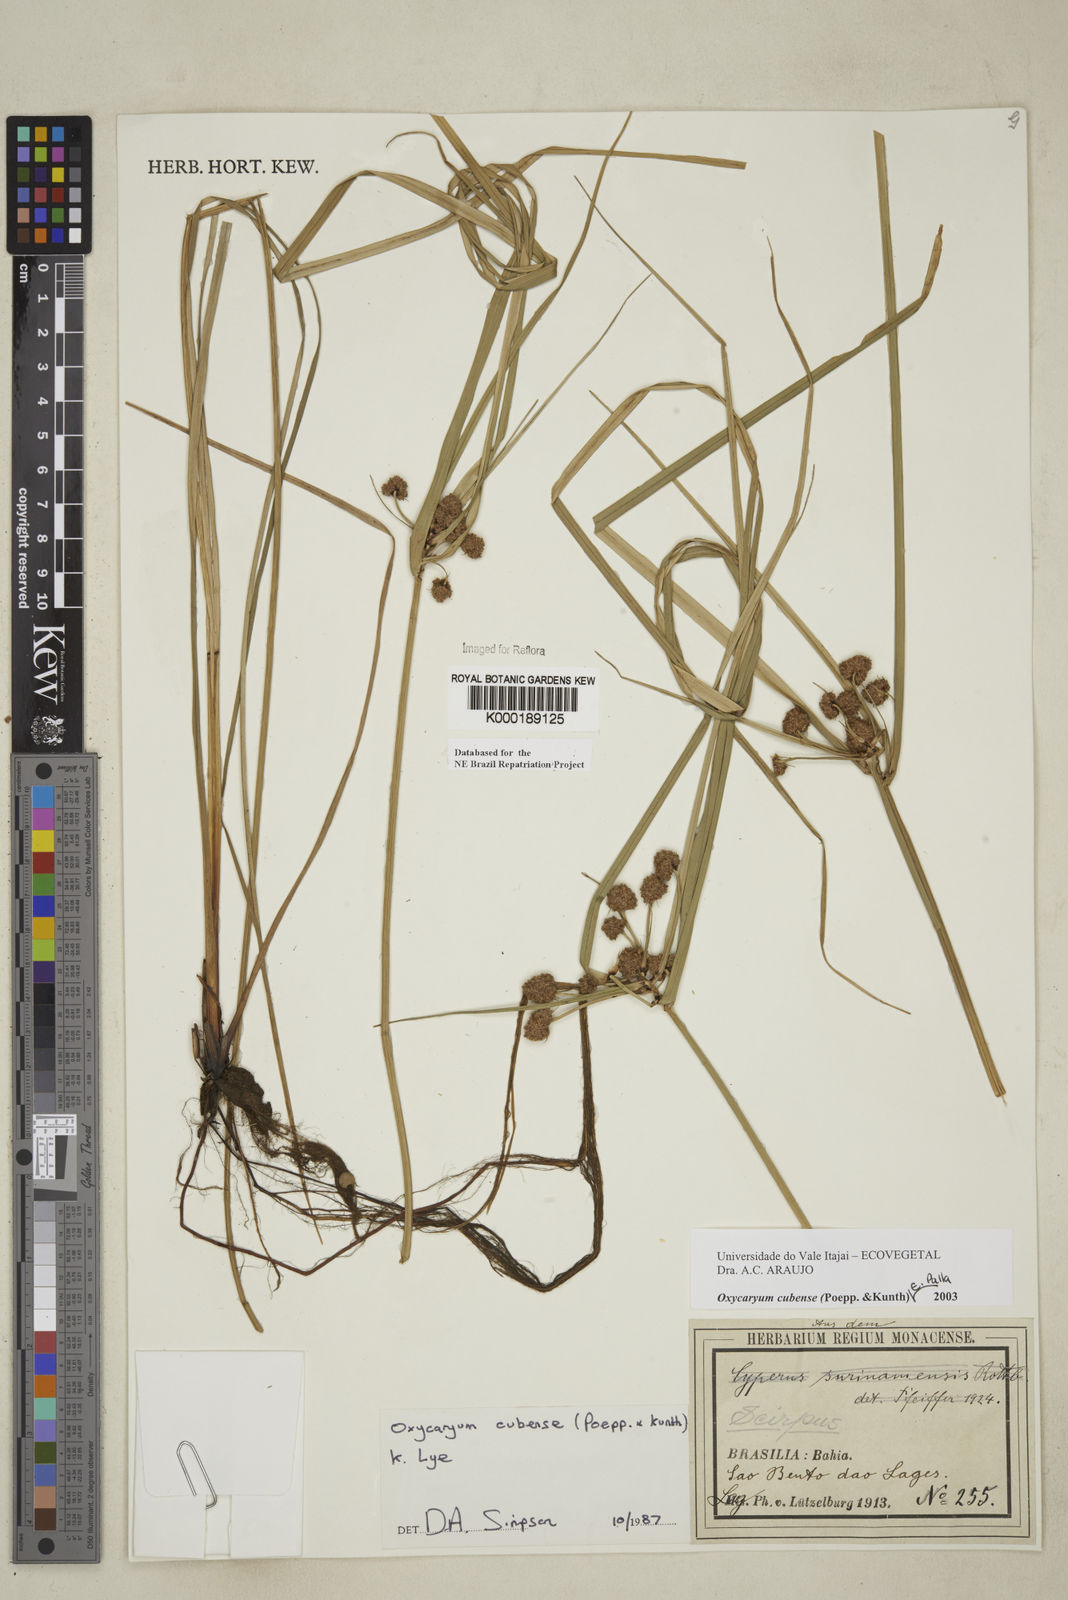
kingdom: Plantae
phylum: Tracheophyta
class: Liliopsida
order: Poales
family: Cyperaceae
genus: Cyperus
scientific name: Cyperus blepharoleptos
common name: Cuban bulrush
